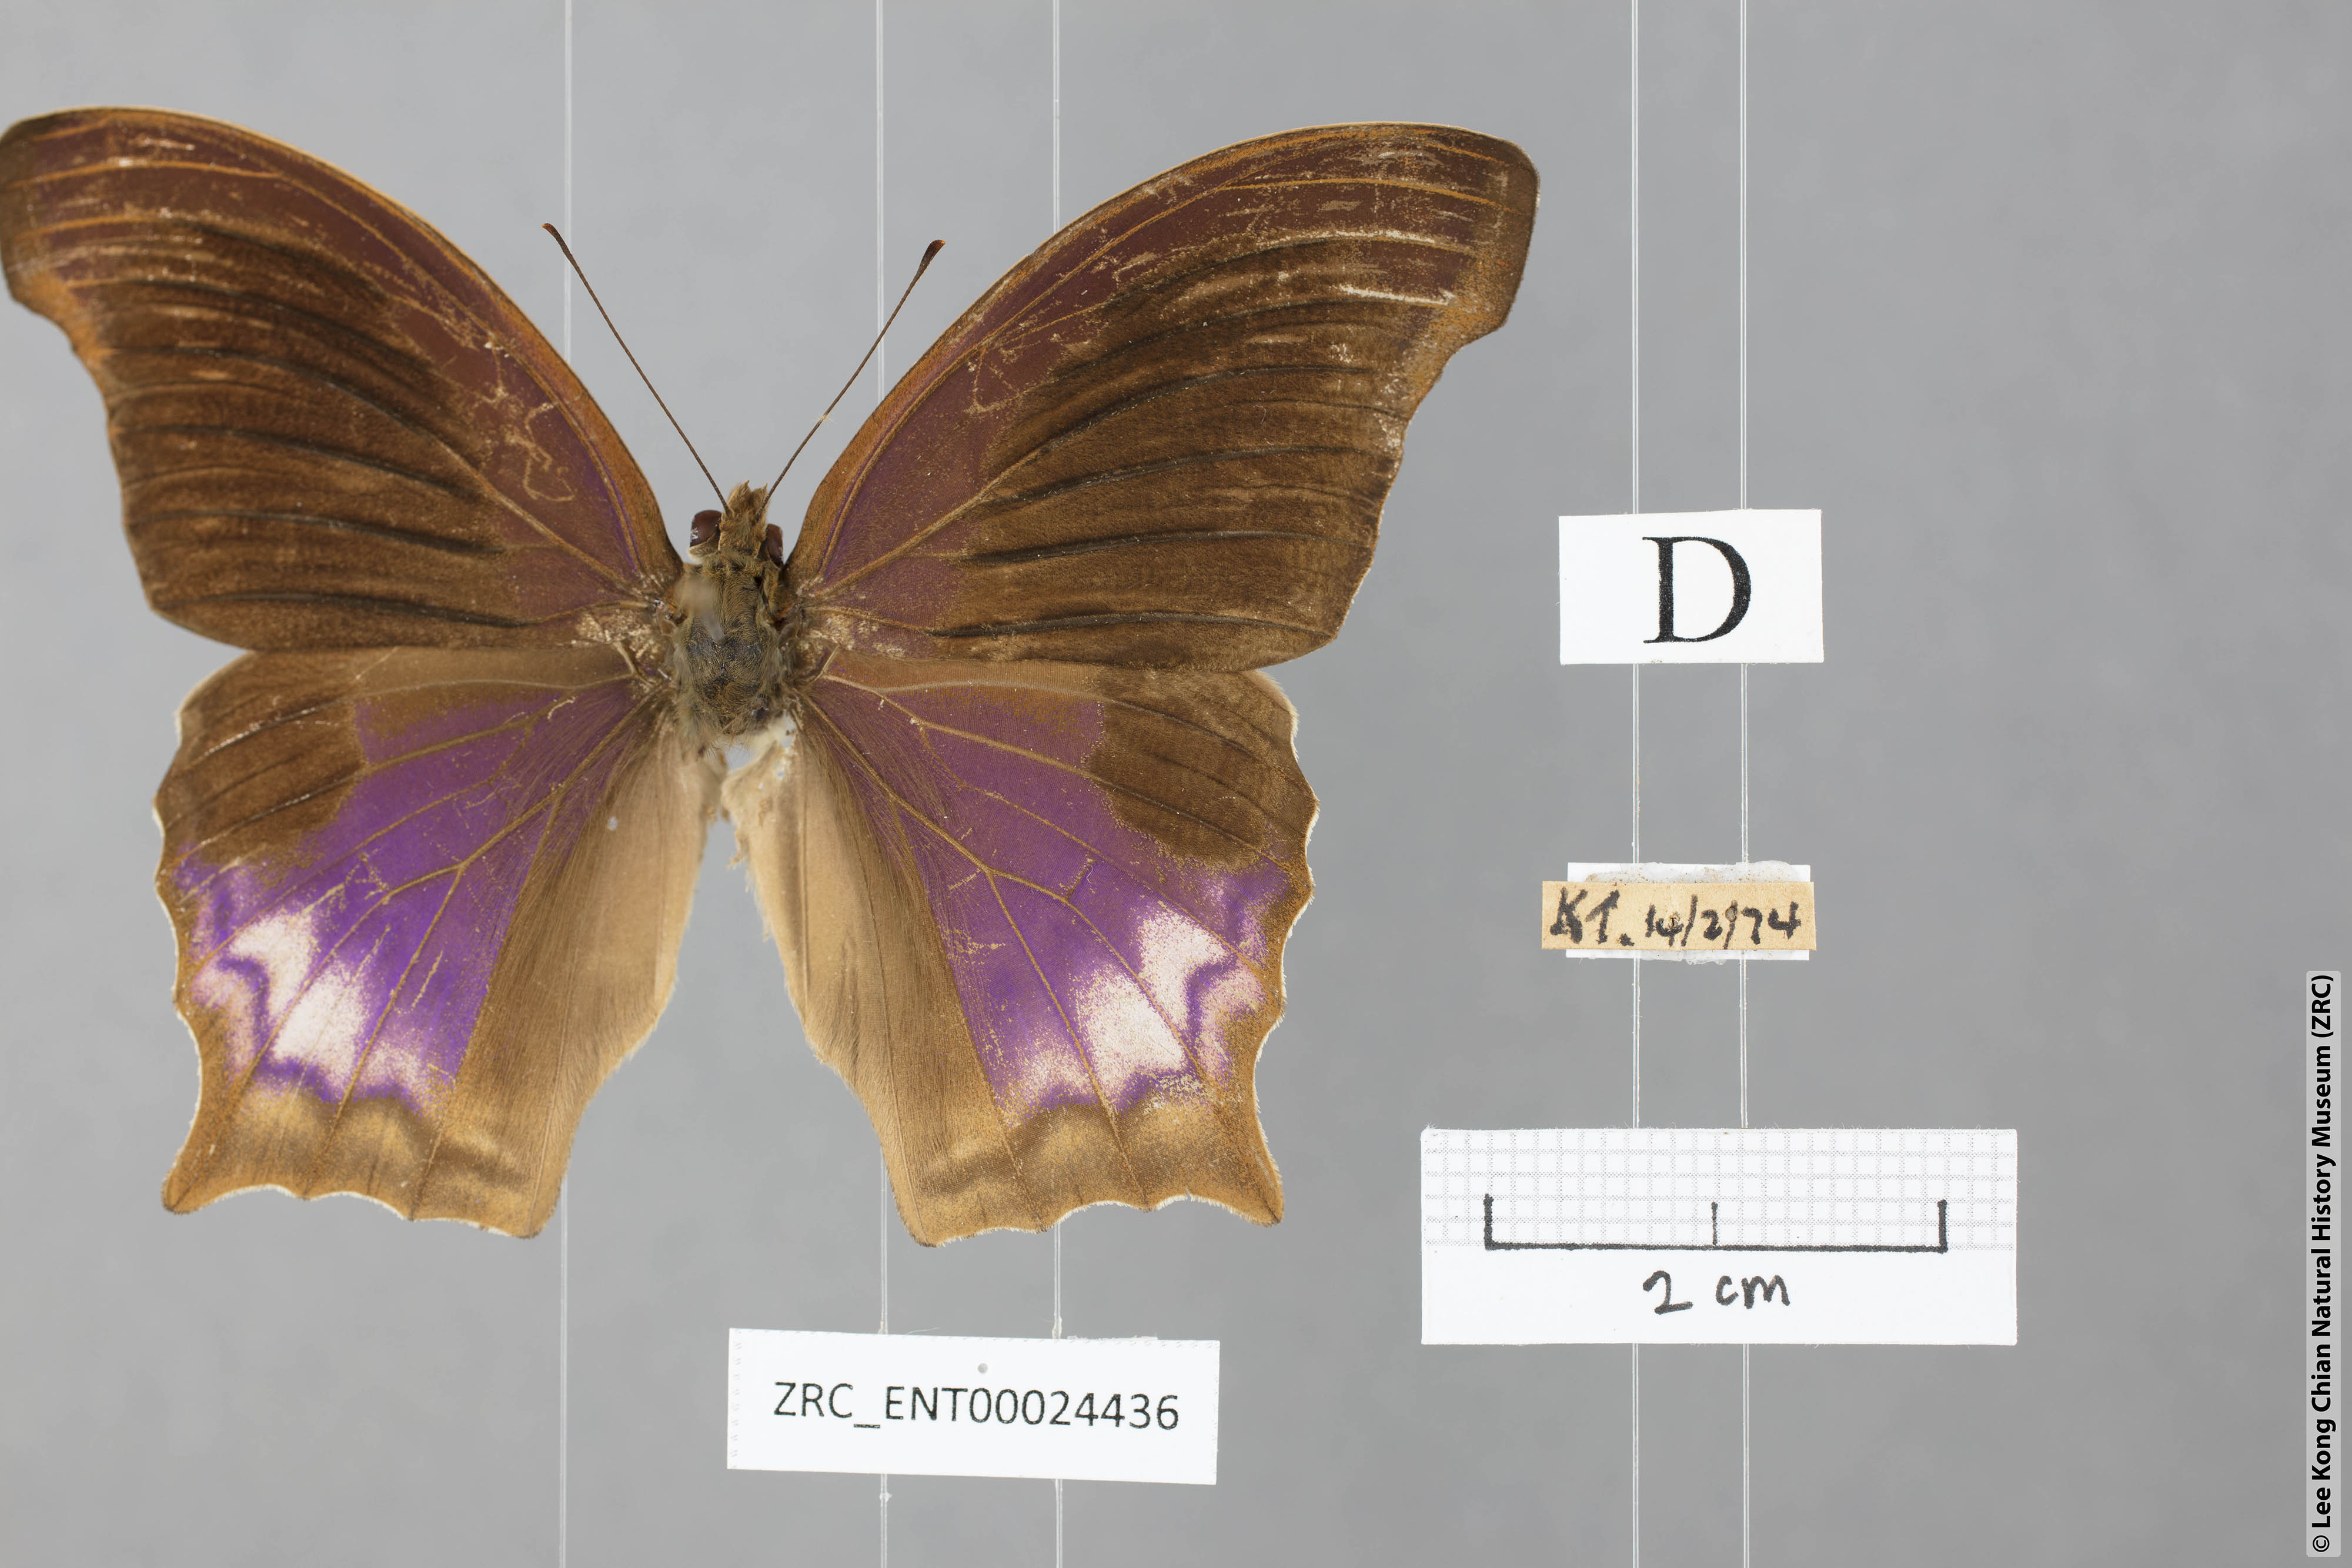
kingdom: Animalia
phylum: Arthropoda
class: Insecta
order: Lepidoptera
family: Nymphalidae
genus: Terinos
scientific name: Terinos terpander
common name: Royal assyrian
